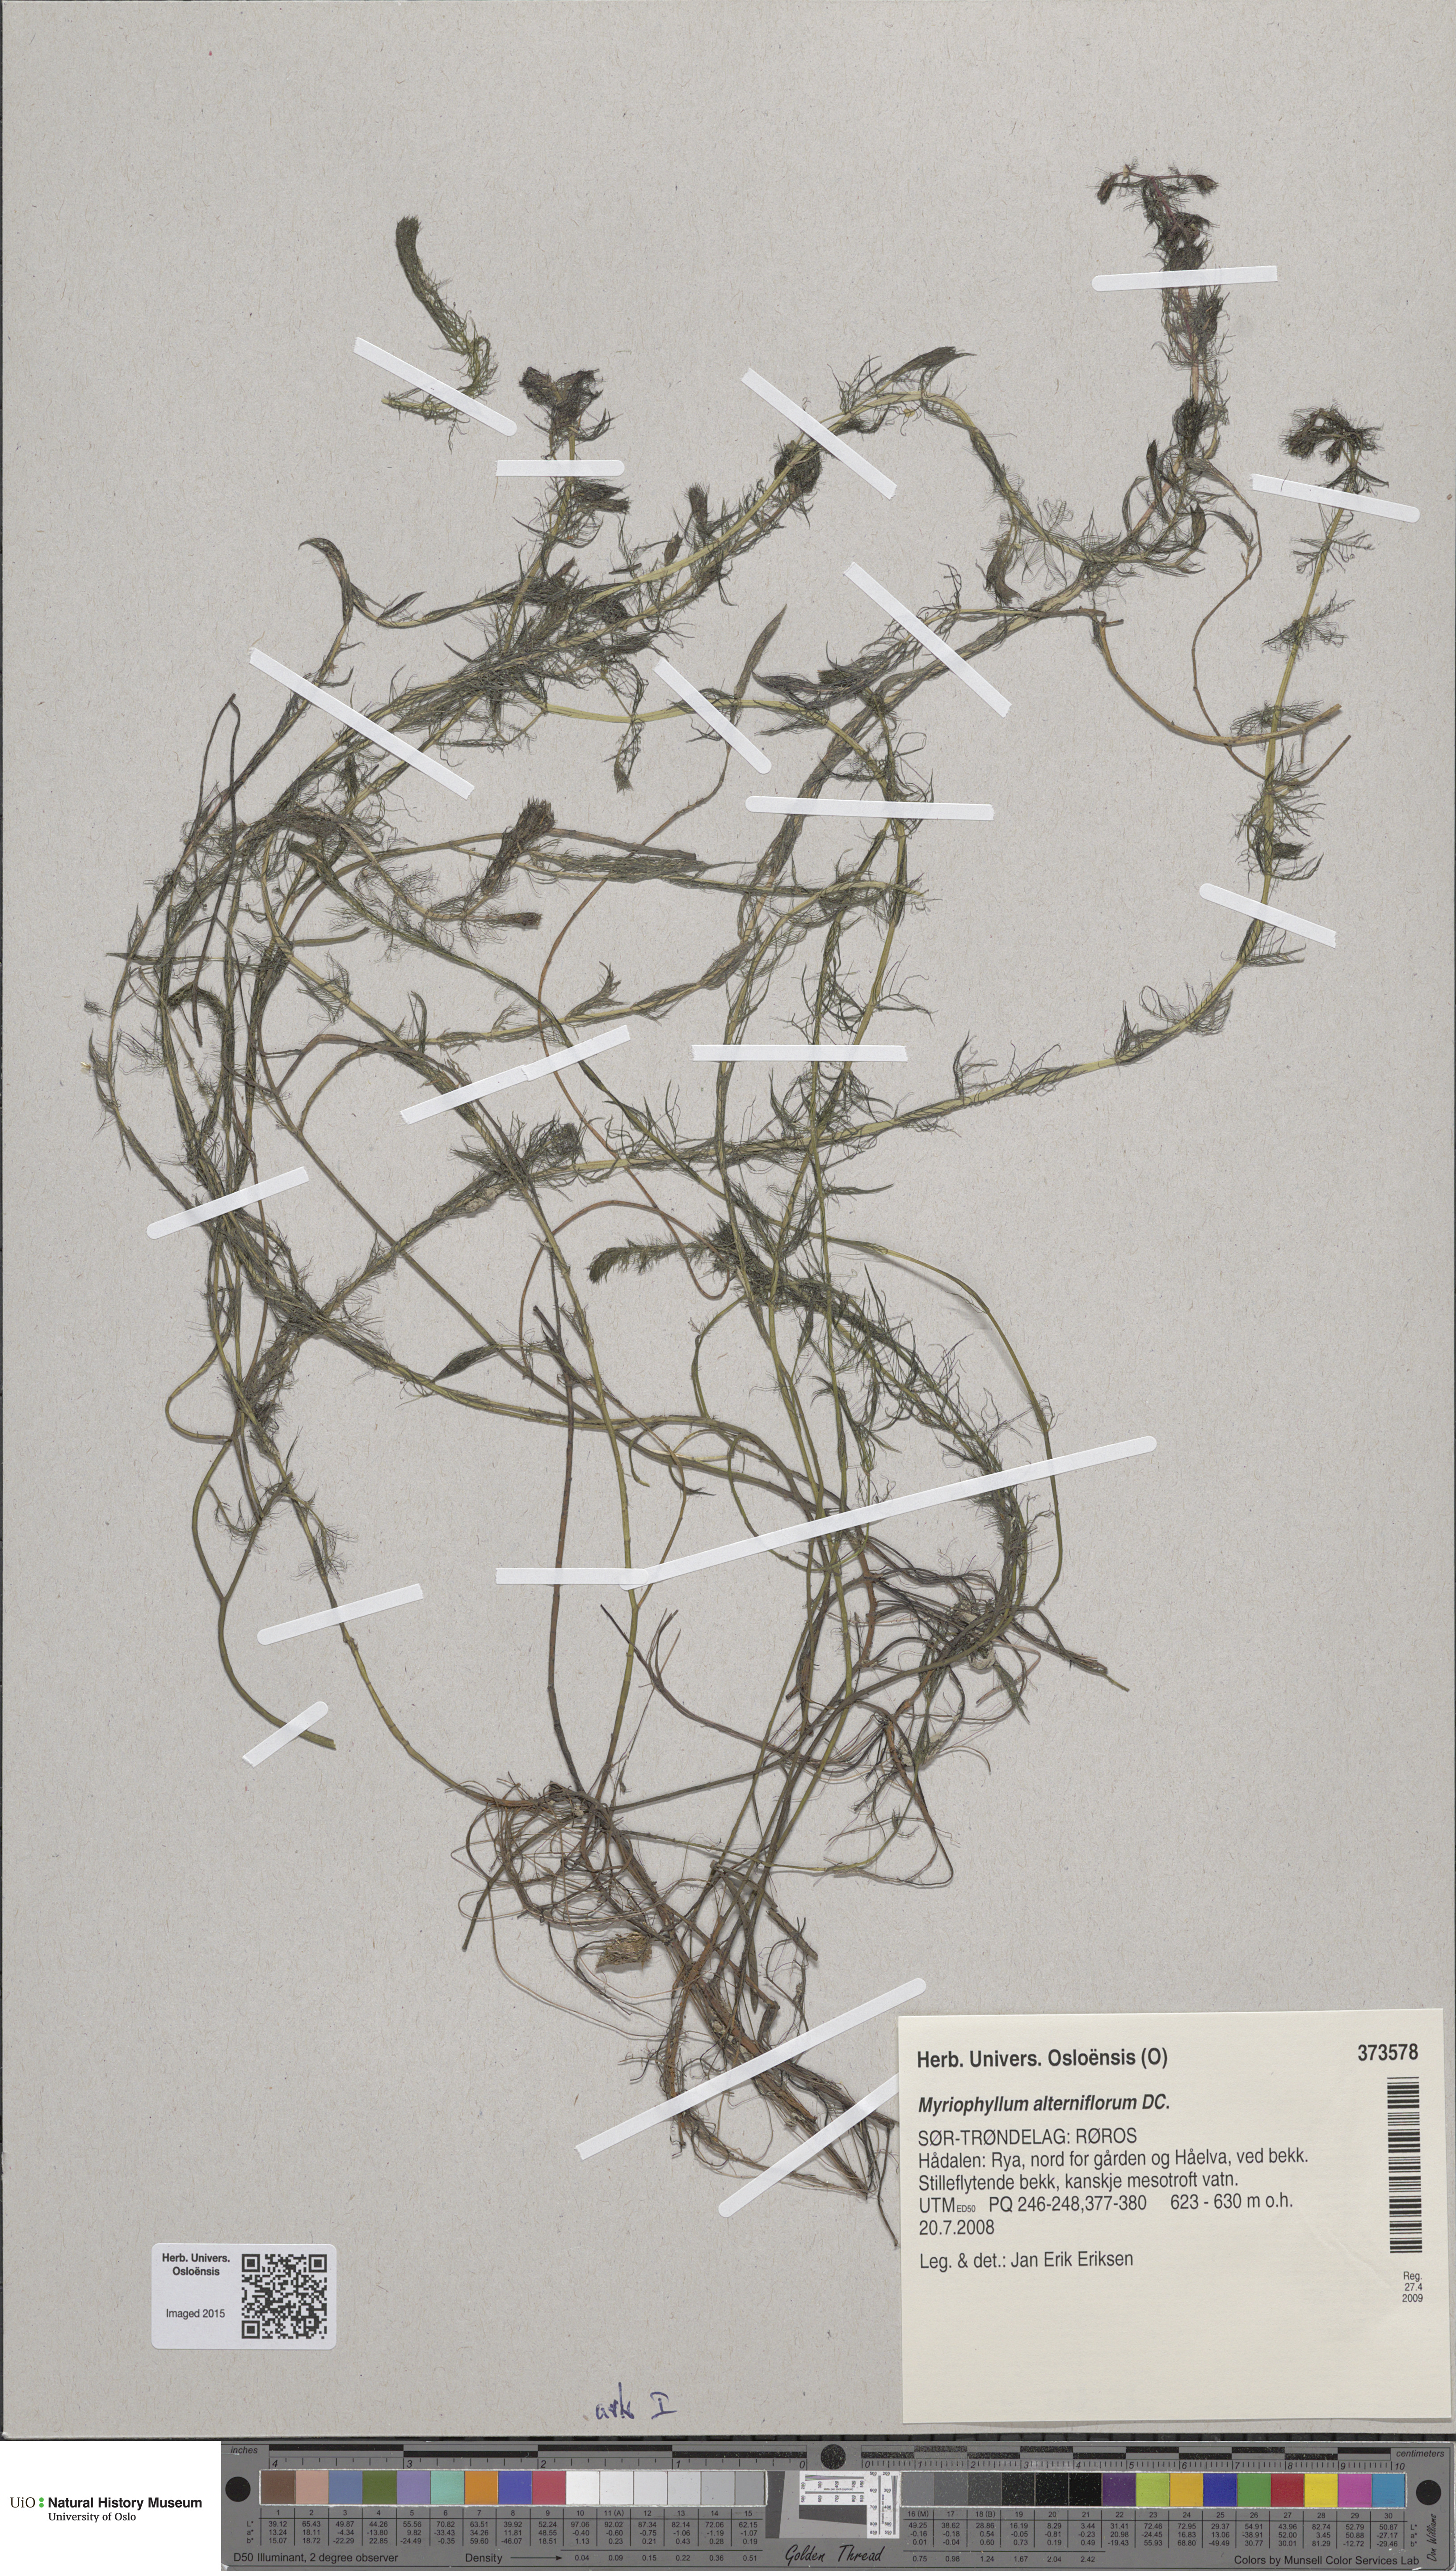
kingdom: Plantae
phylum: Tracheophyta
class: Magnoliopsida
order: Saxifragales
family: Haloragaceae
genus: Myriophyllum
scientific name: Myriophyllum alterniflorum
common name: Alternate water-milfoil
